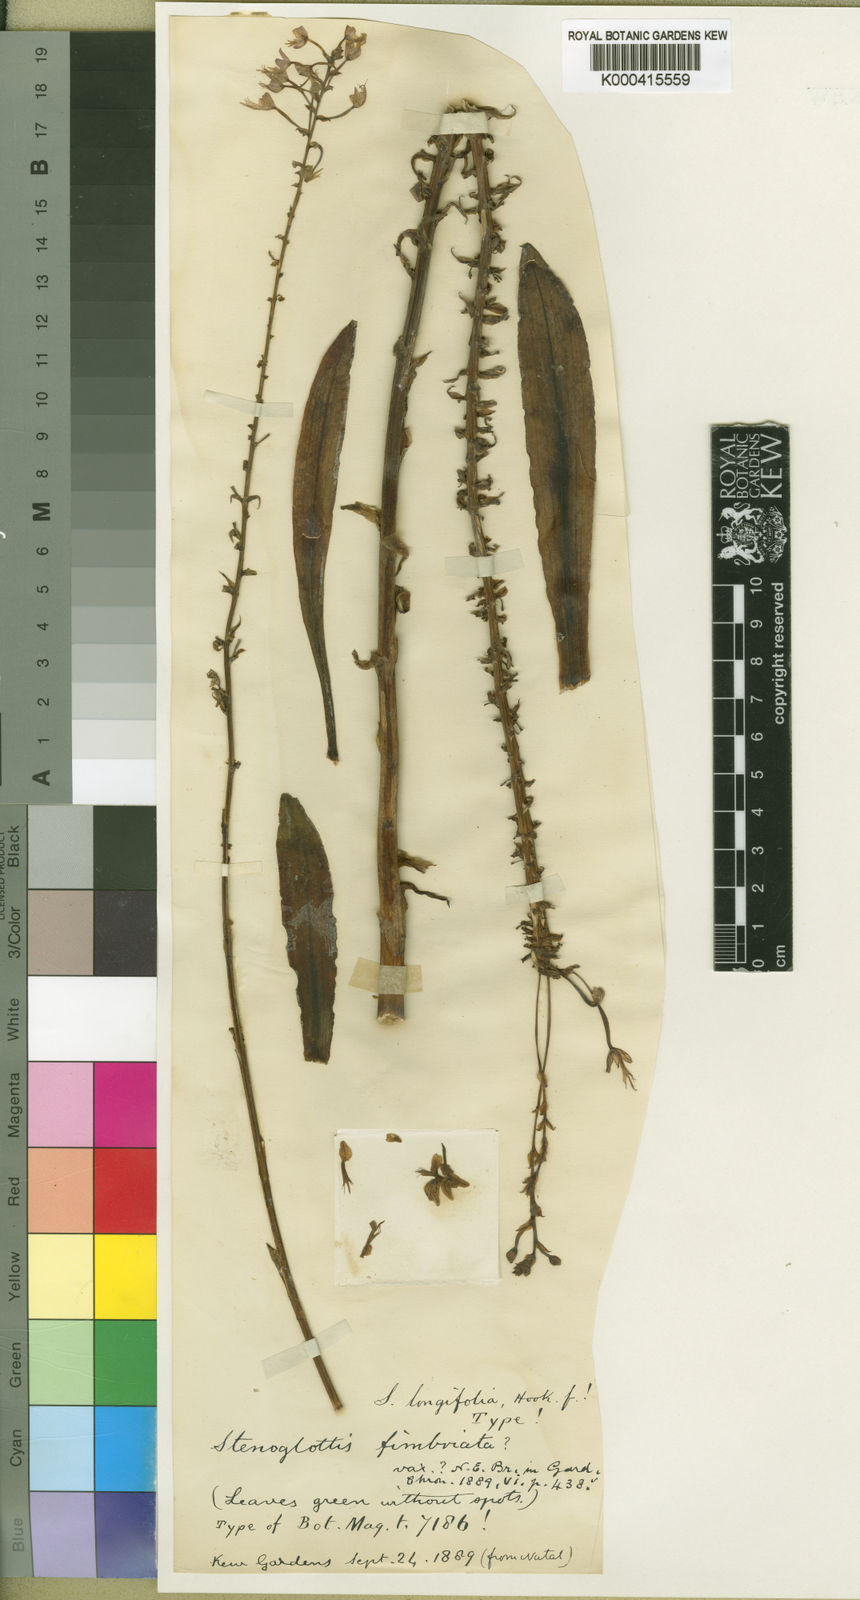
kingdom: Plantae
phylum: Tracheophyta
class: Liliopsida
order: Asparagales
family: Orchidaceae
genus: Stenoglottis
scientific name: Stenoglottis longifolia
